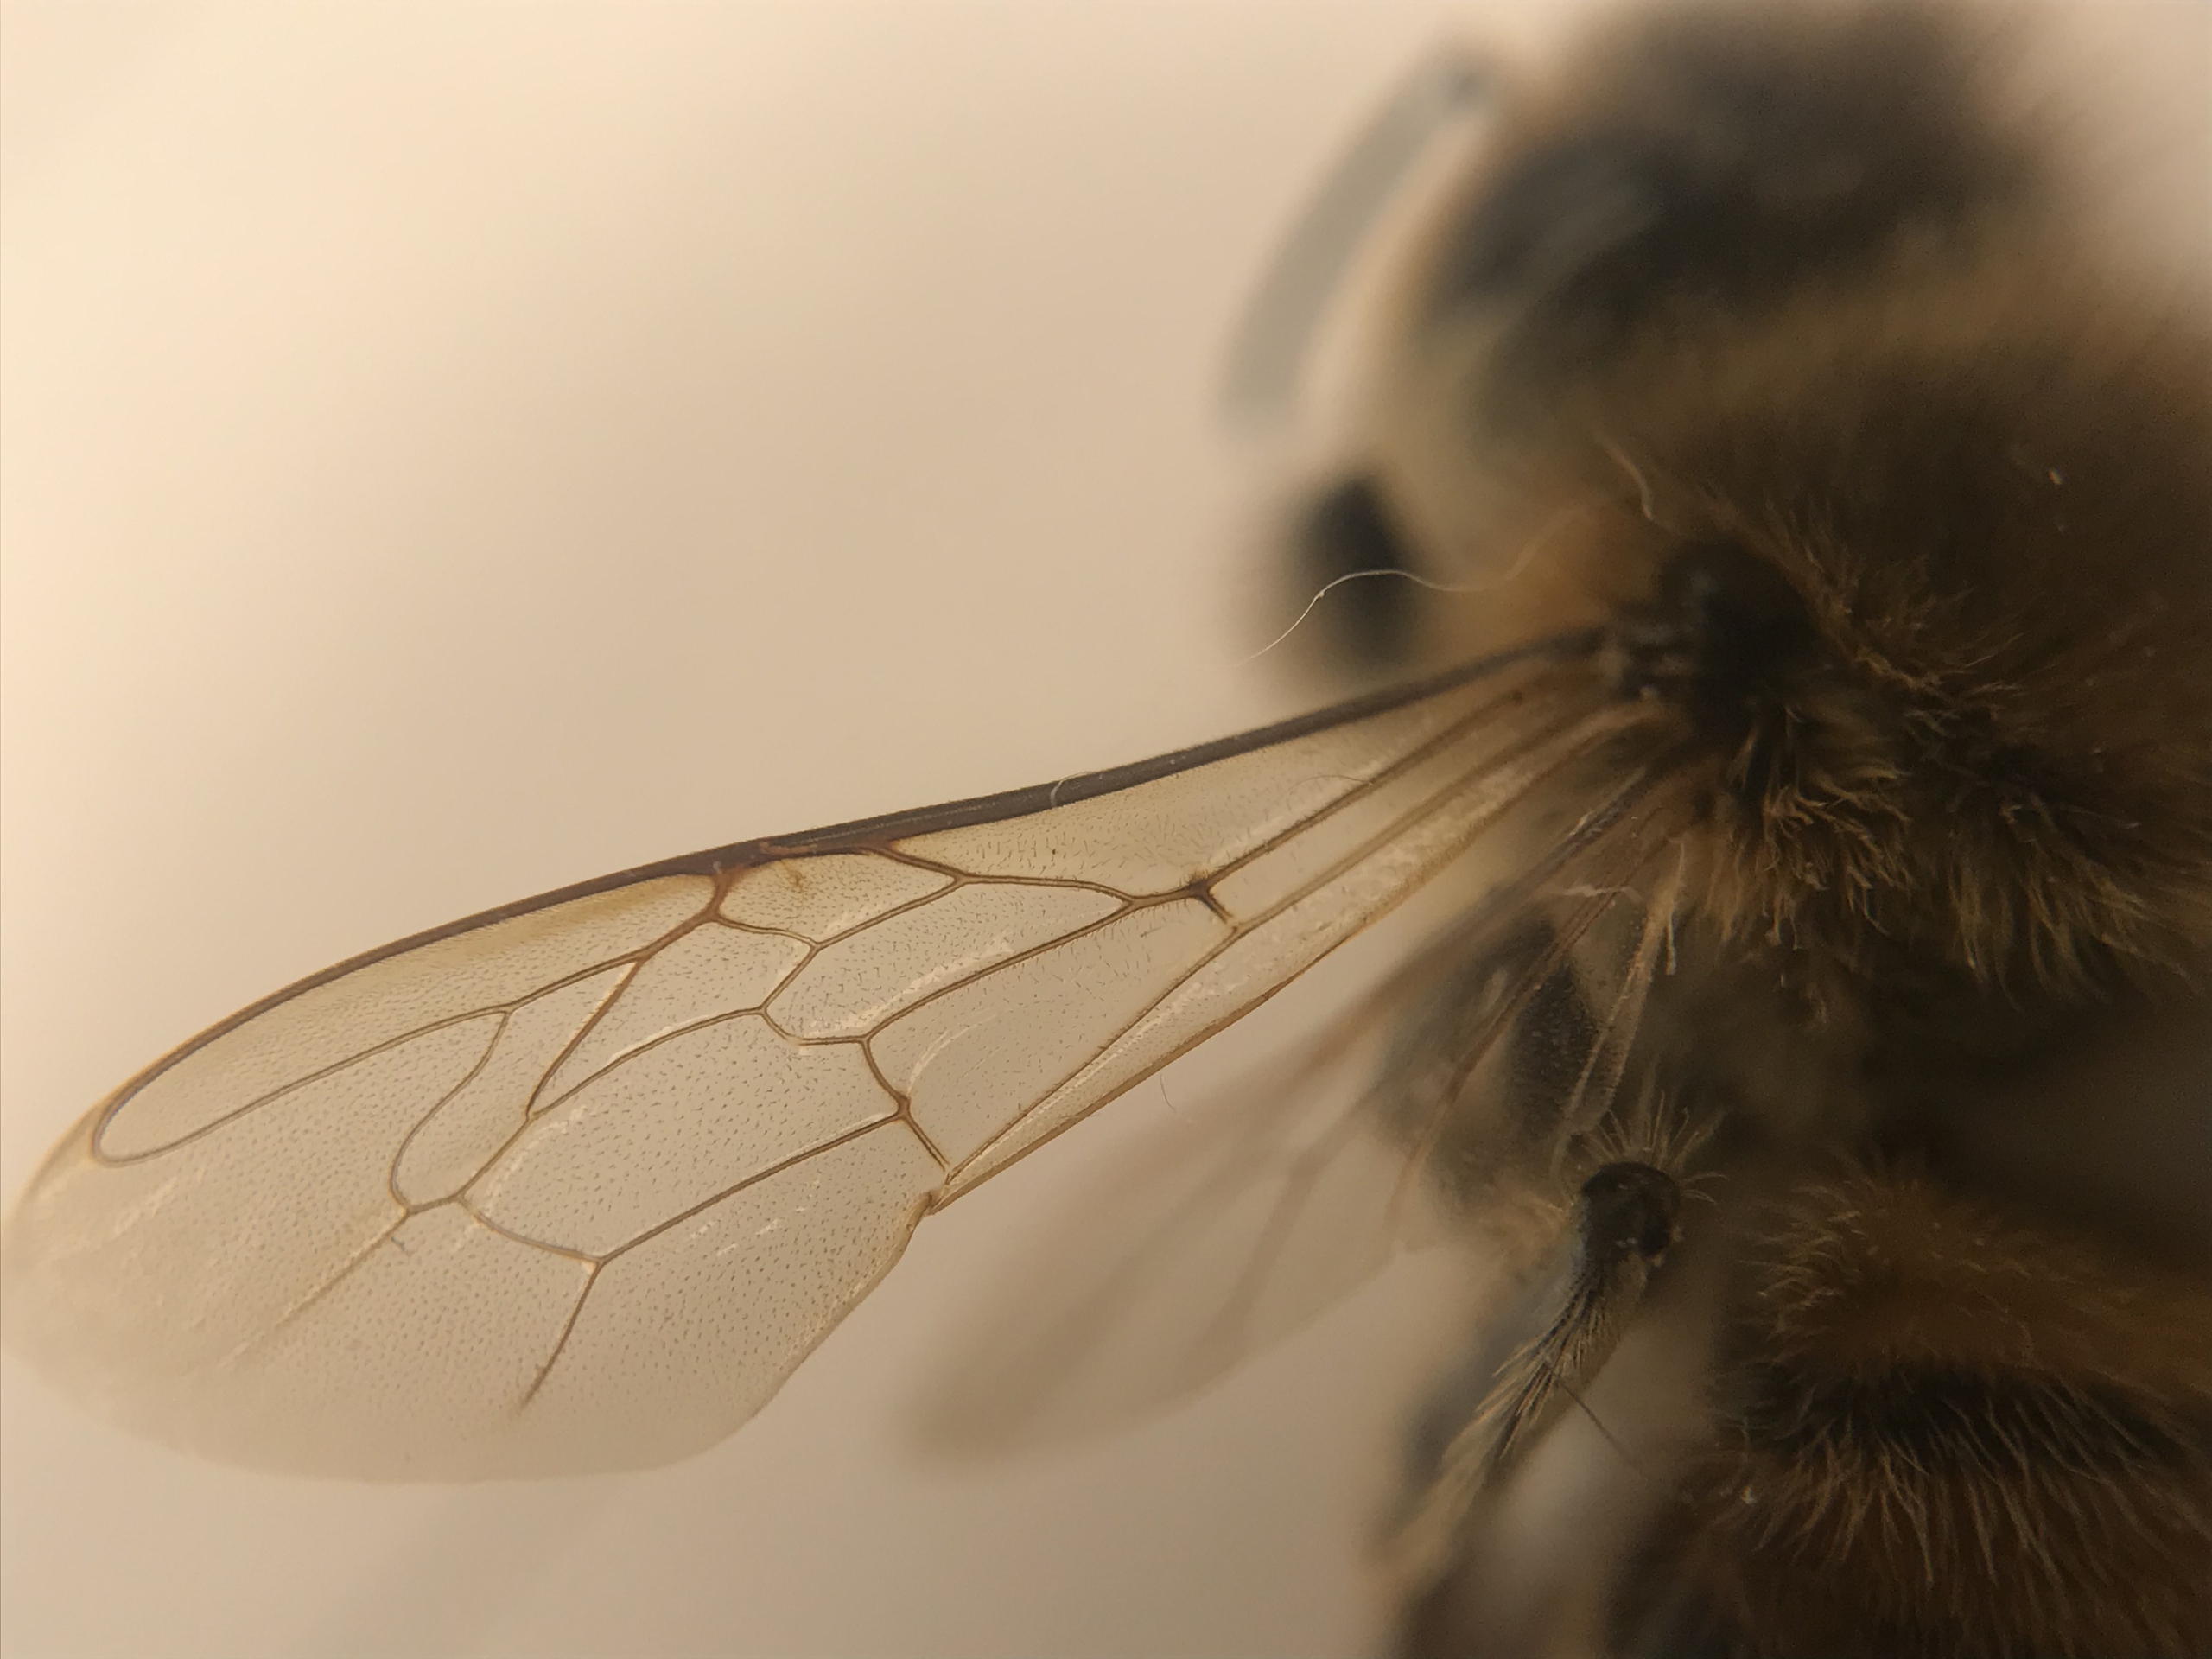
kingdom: Animalia
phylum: Arthropoda
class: Insecta
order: Hymenoptera
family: Apidae
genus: Apis
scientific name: Apis mellifera
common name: Honningbi
